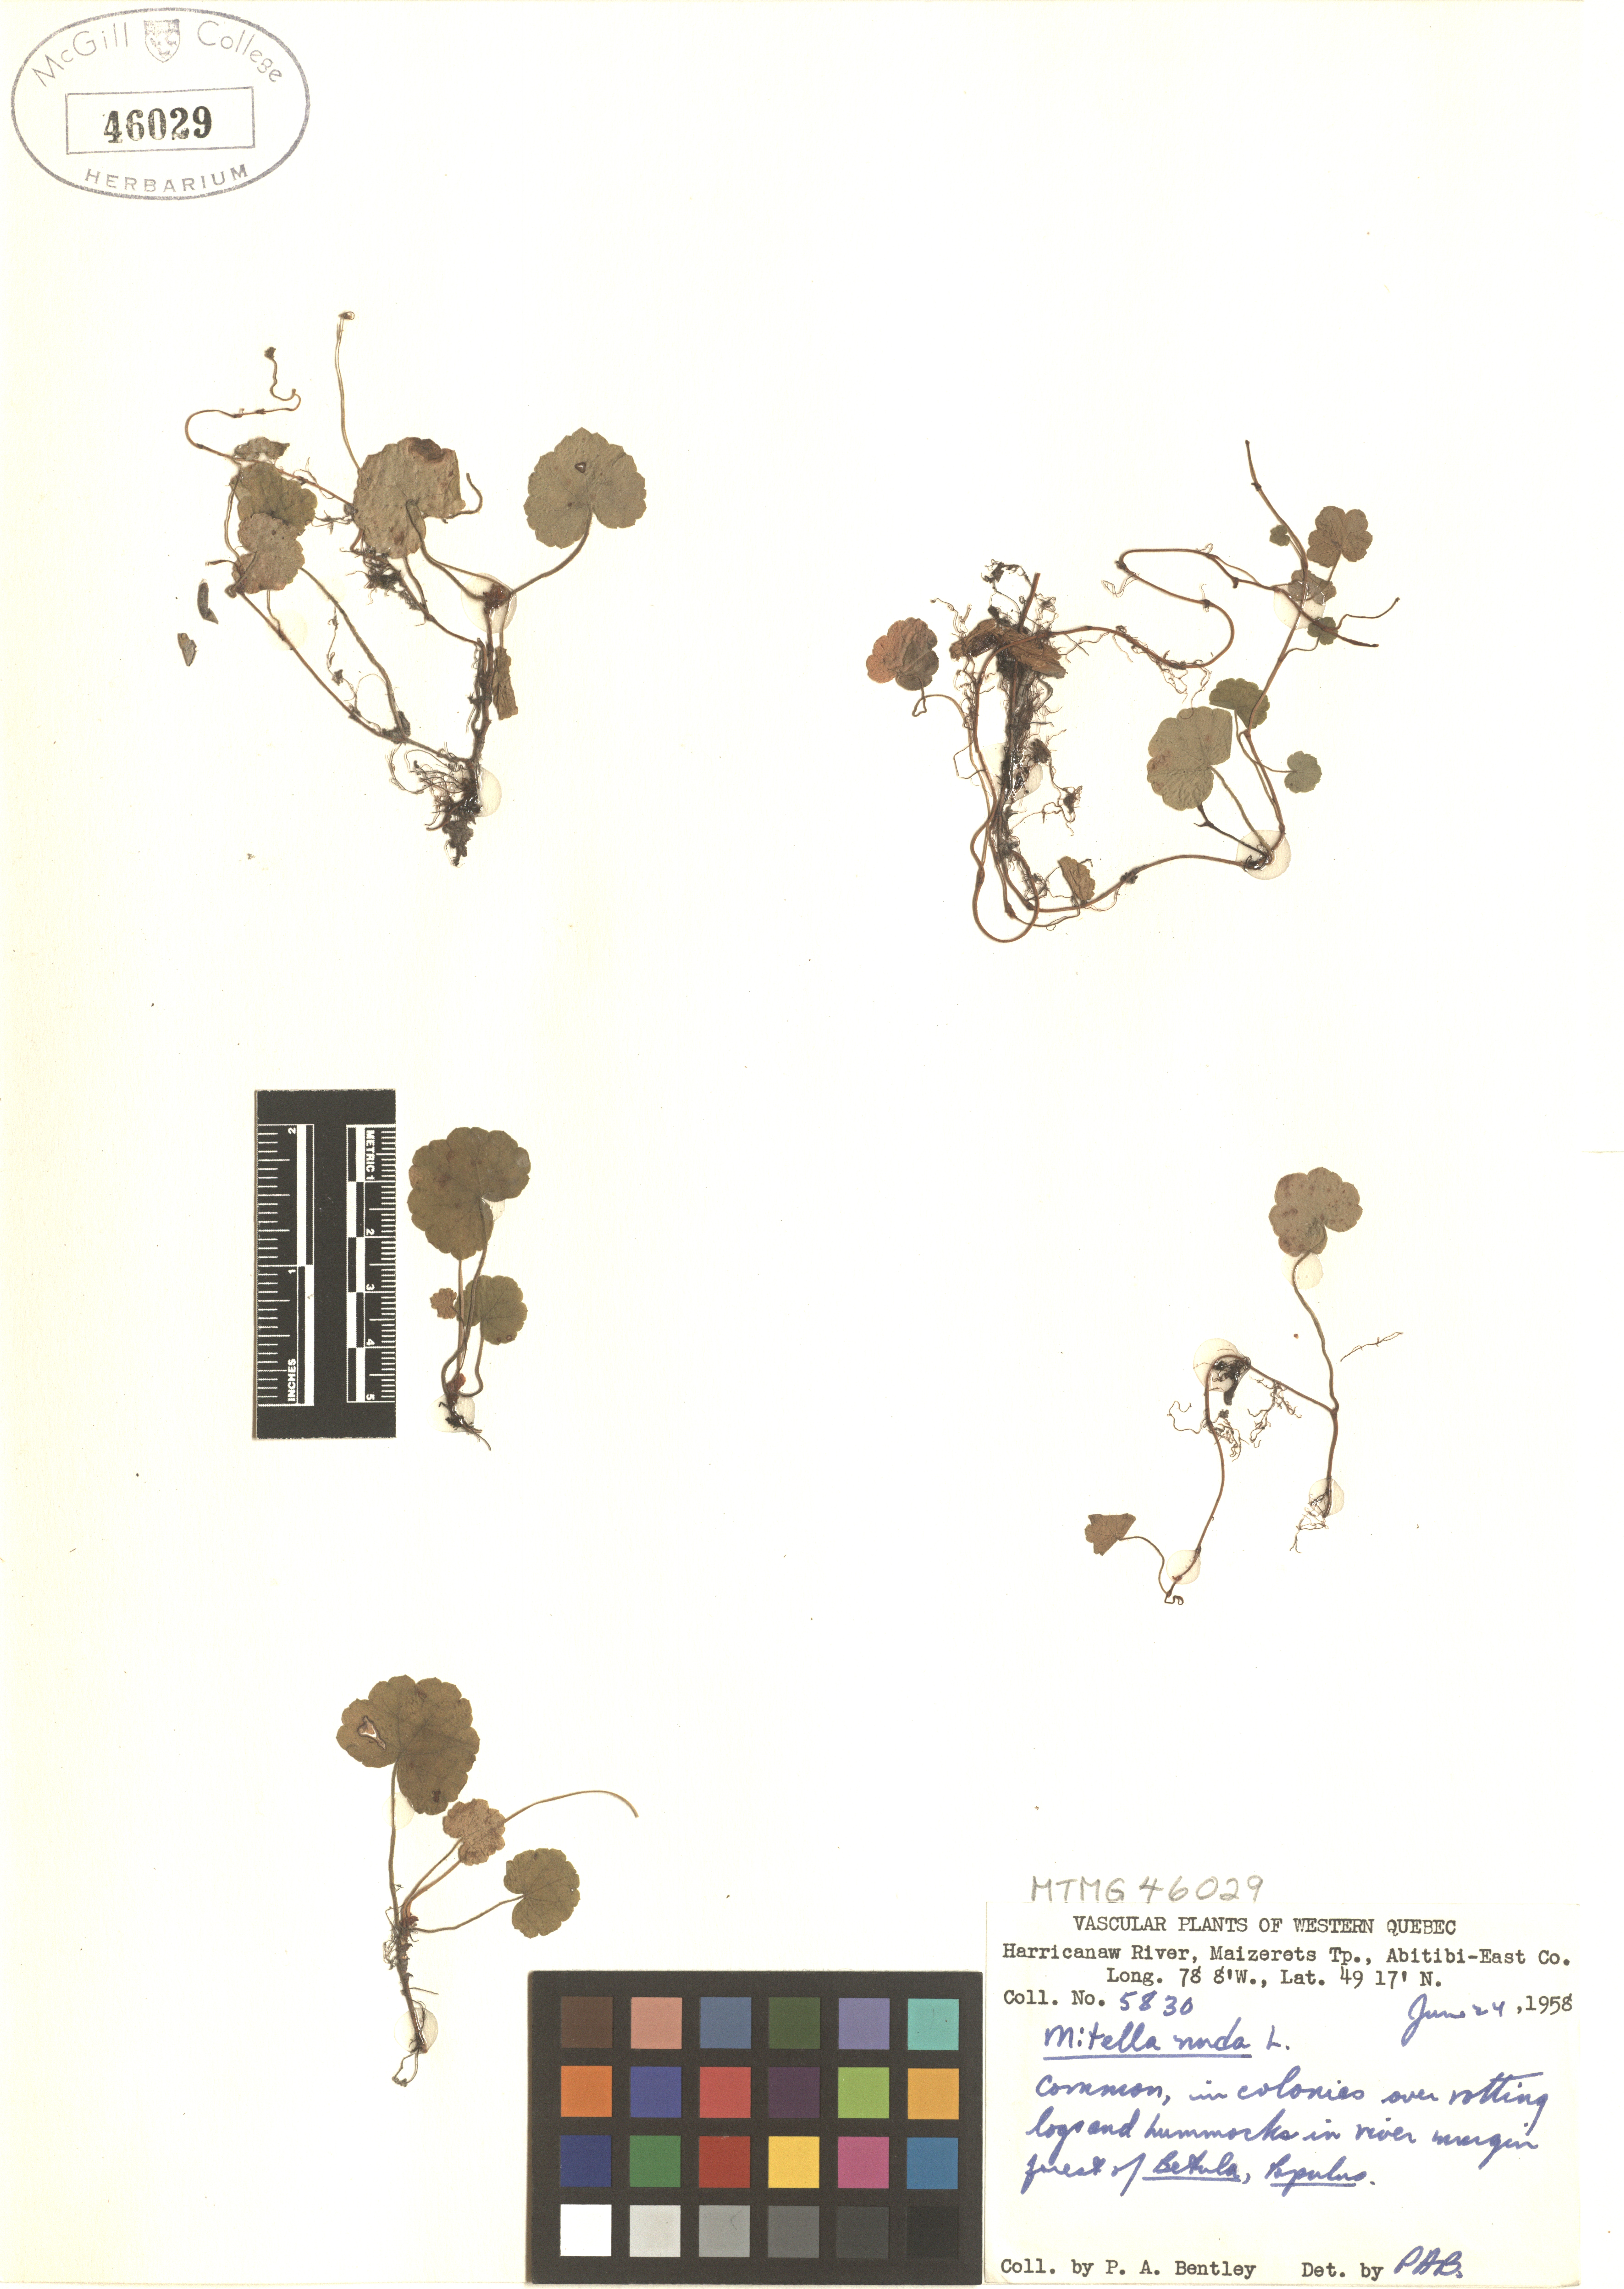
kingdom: Plantae
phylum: Tracheophyta
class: Magnoliopsida
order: Saxifragales
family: Saxifragaceae
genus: Mitella
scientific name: Mitella nuda
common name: Bare-stemmed bishop's-cap
